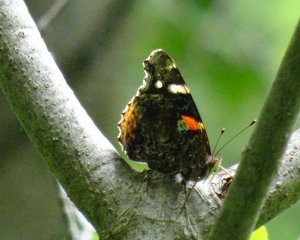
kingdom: Animalia
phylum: Arthropoda
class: Insecta
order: Lepidoptera
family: Nymphalidae
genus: Vanessa
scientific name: Vanessa atalanta
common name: Red Admiral
